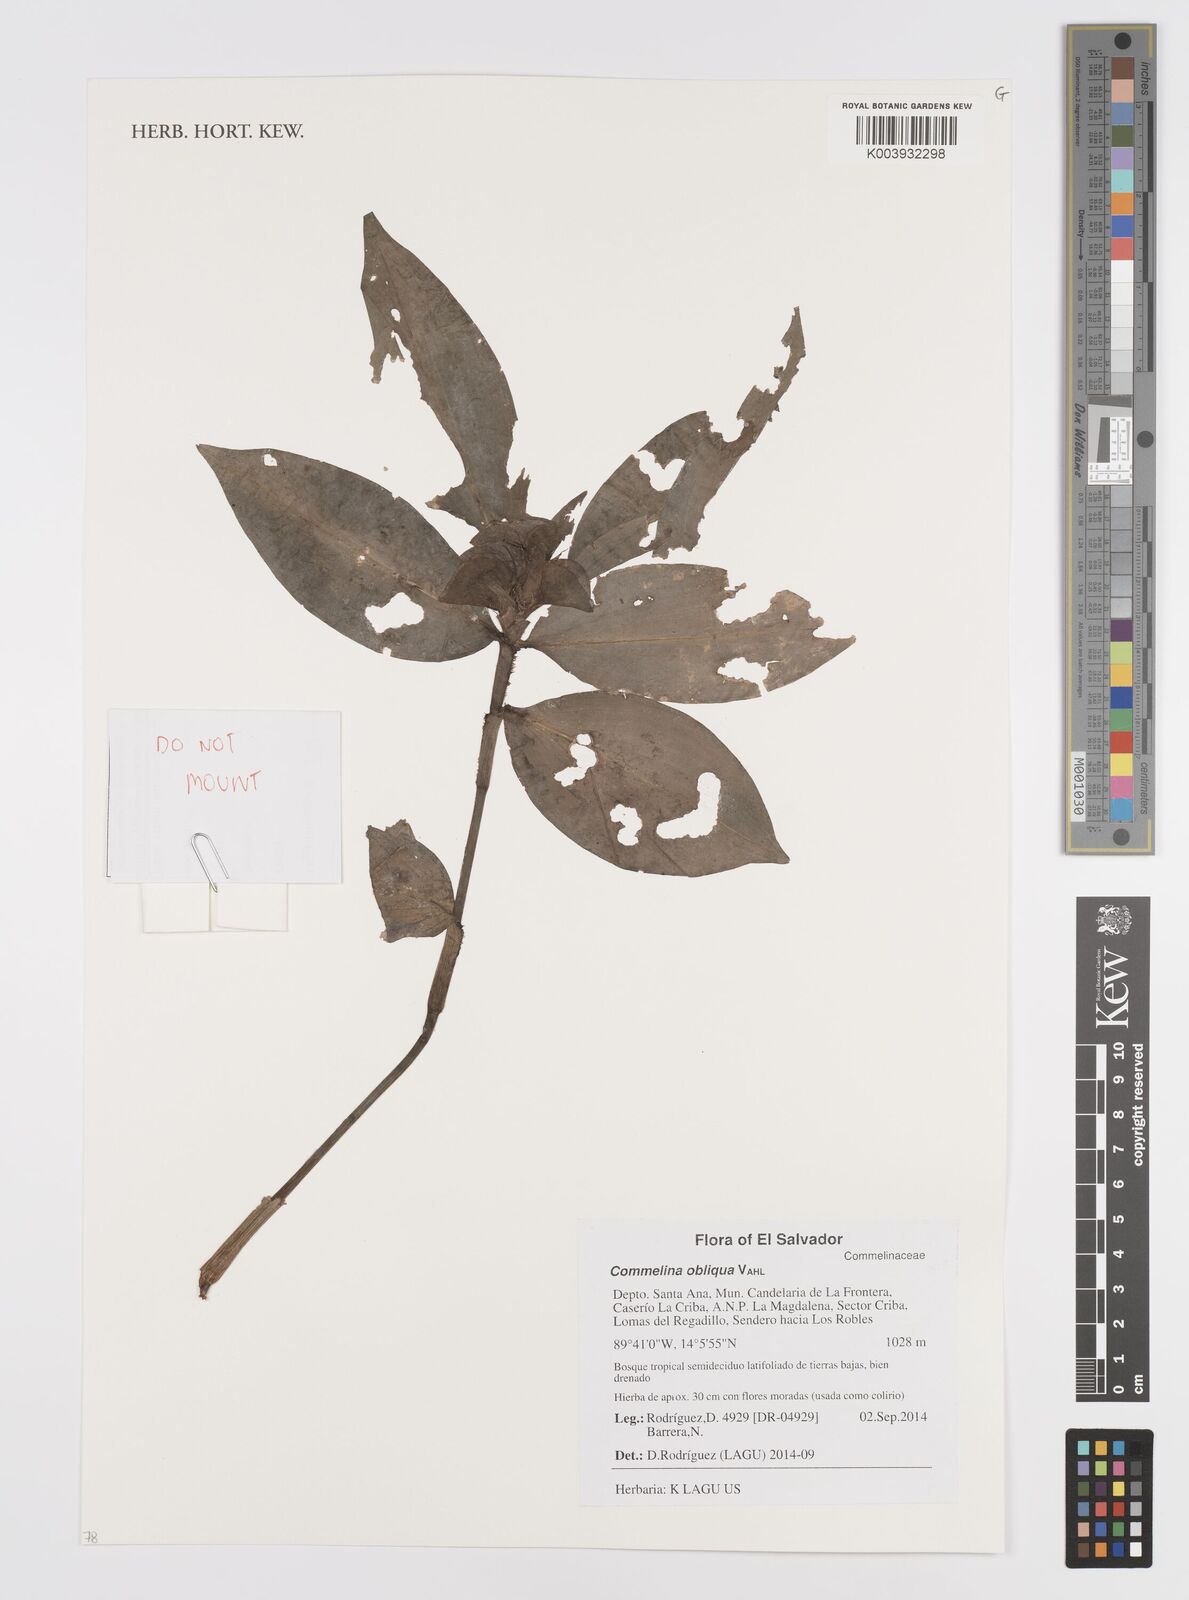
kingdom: Plantae
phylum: Tracheophyta
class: Liliopsida
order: Commelinales
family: Commelinaceae
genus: Commelina
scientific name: Commelina obliqua
